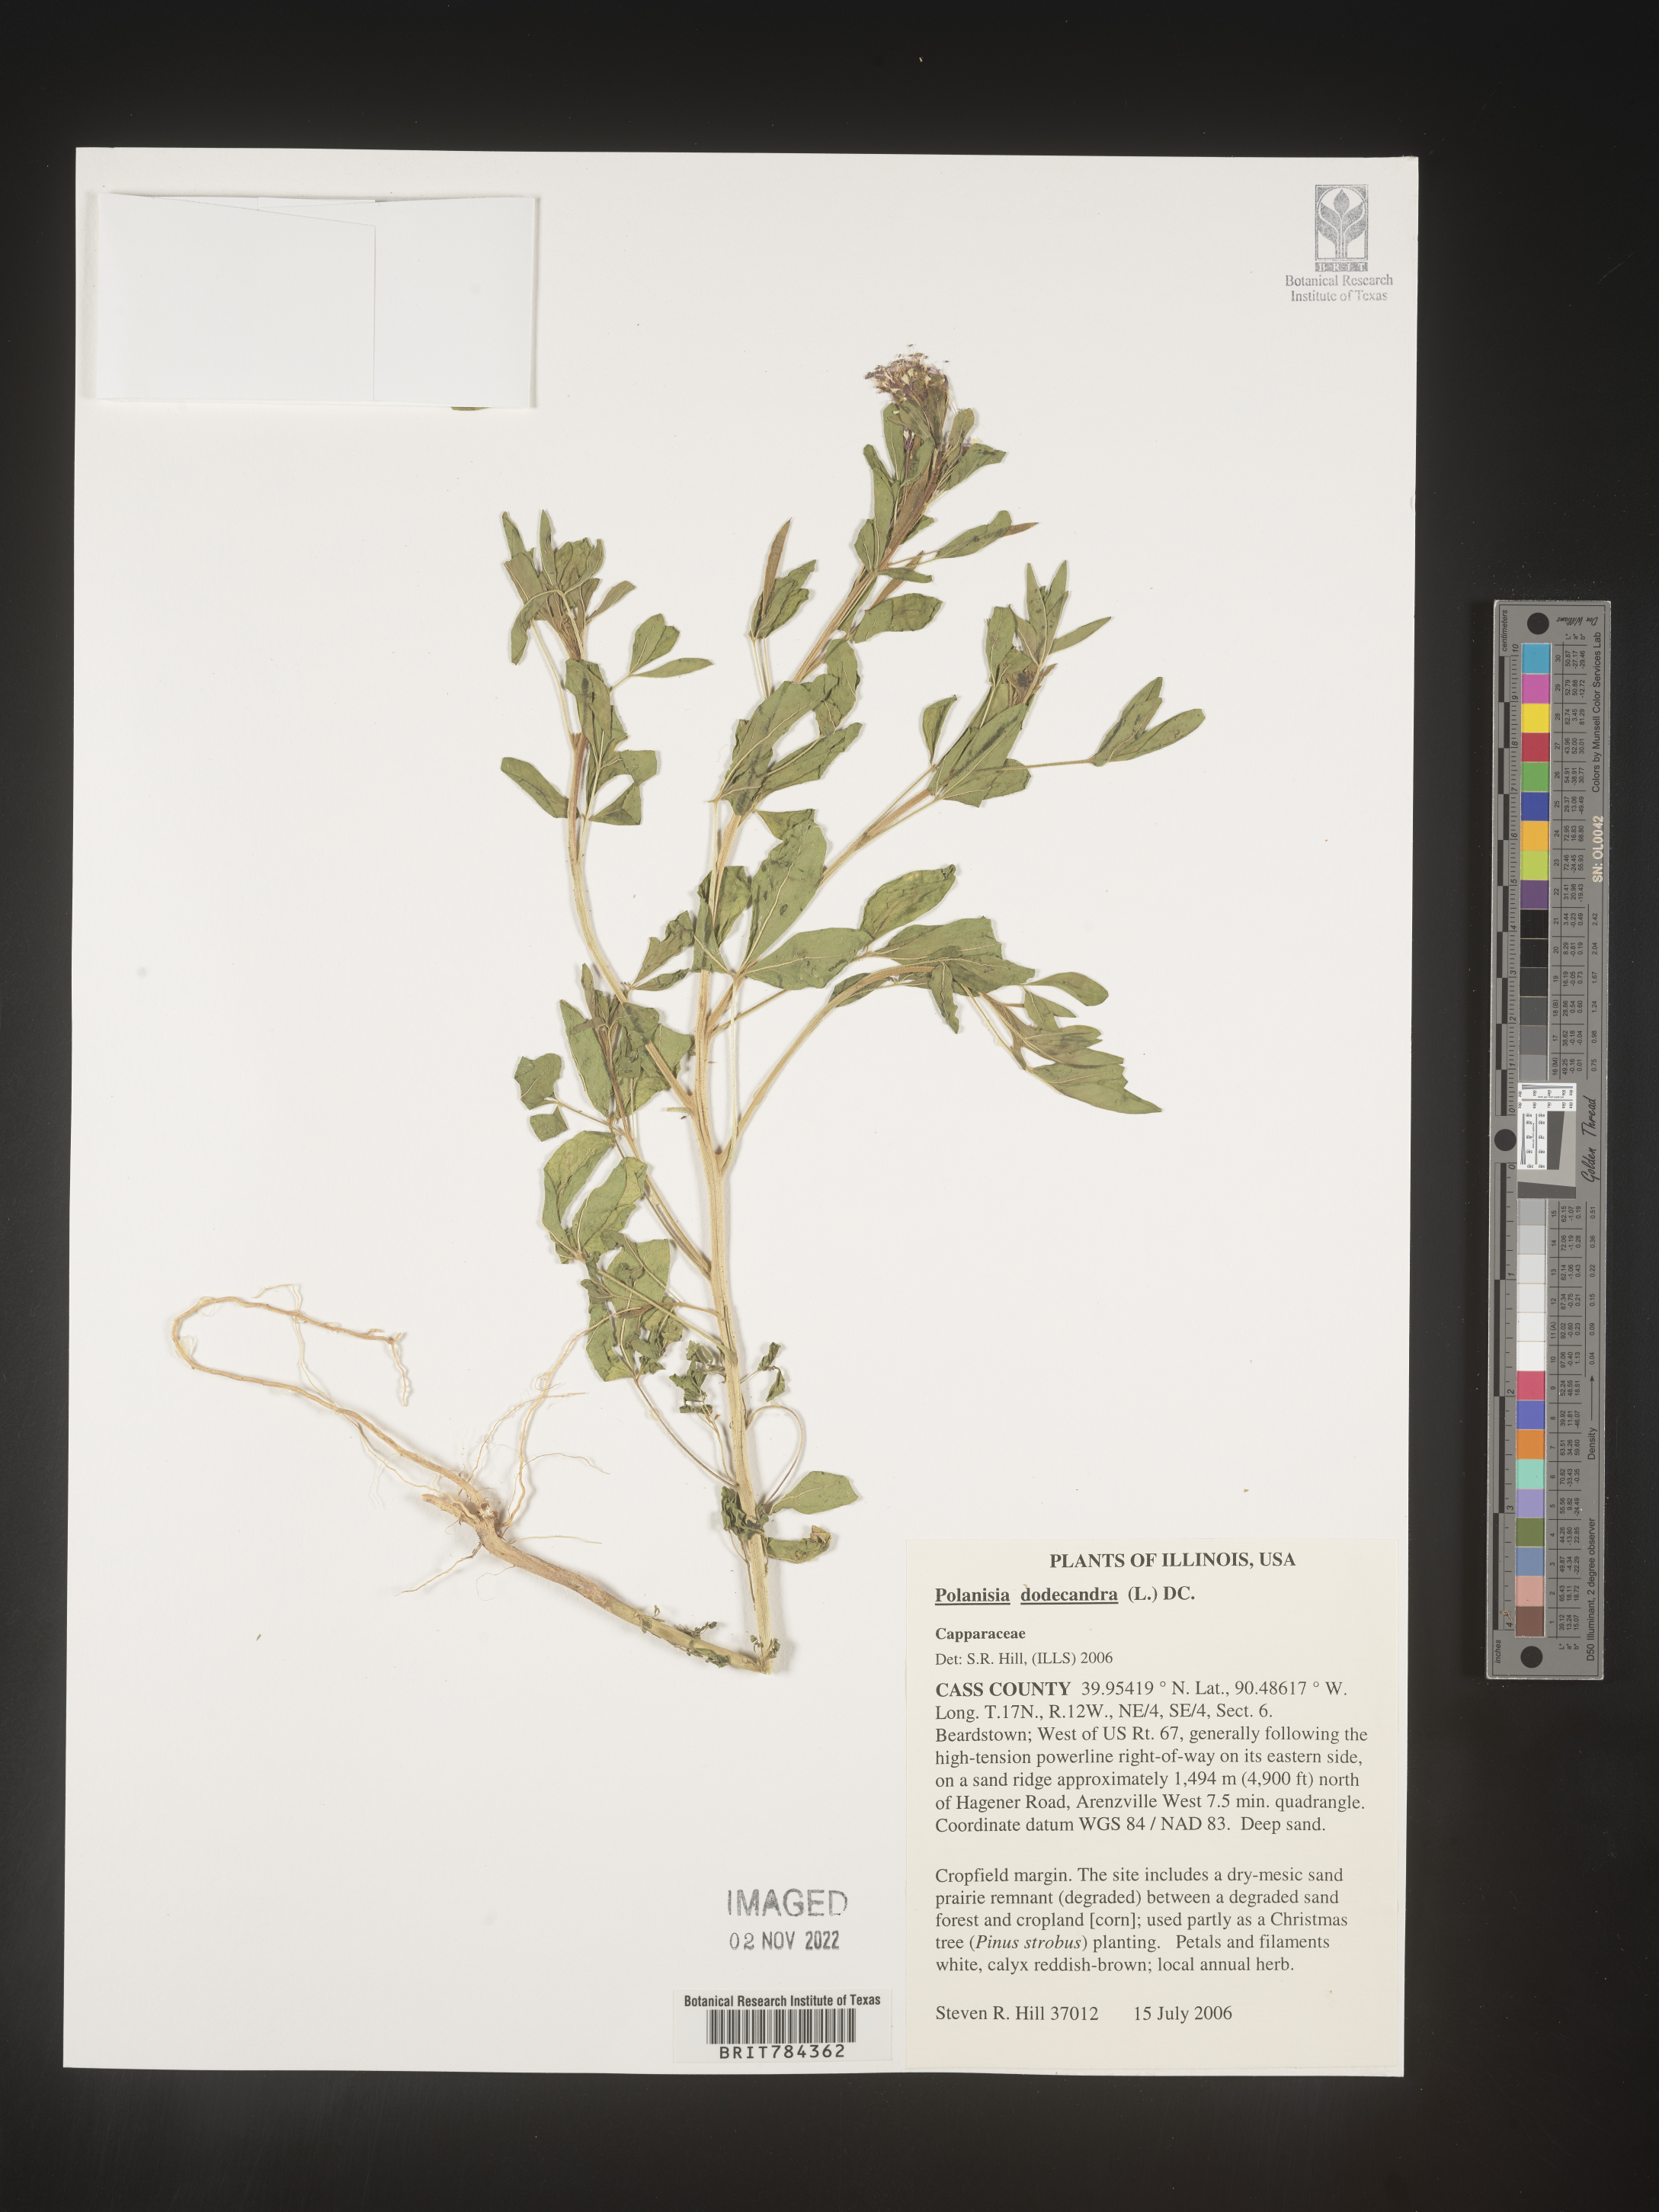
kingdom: Plantae
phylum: Tracheophyta
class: Magnoliopsida
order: Brassicales
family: Cleomaceae
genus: Polanisia
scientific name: Polanisia dodecandra
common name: Clammyweed
